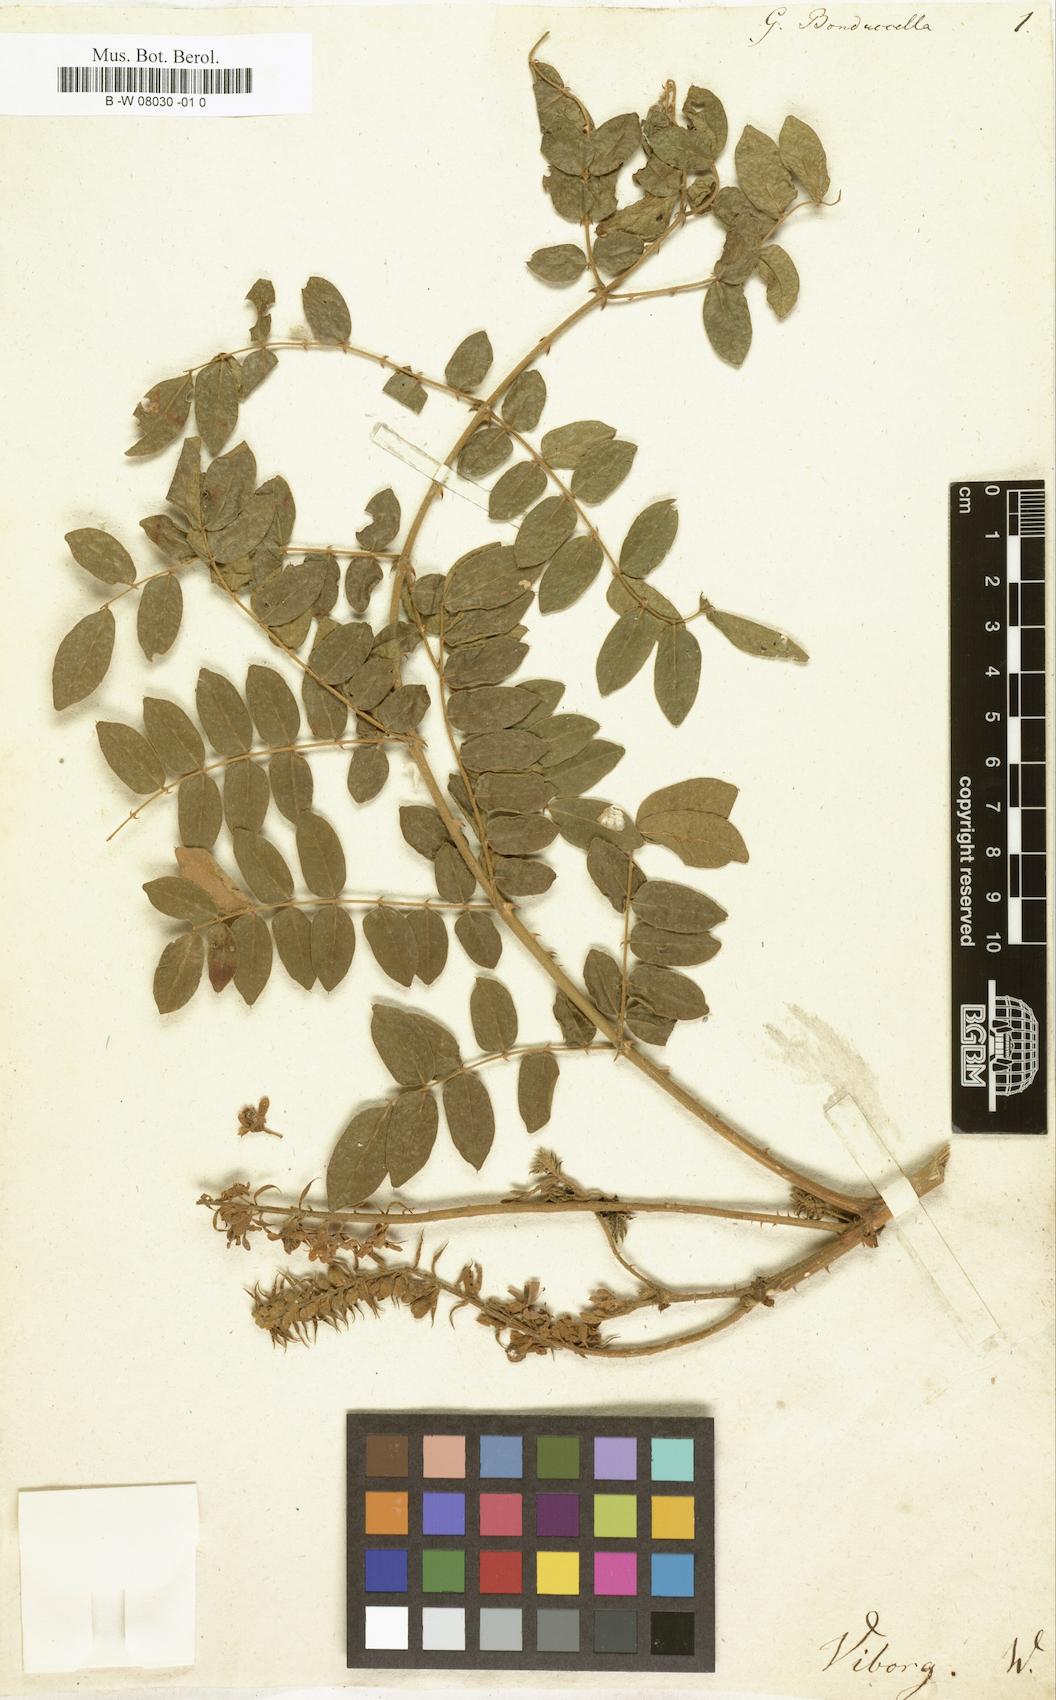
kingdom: Plantae
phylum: Tracheophyta
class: Magnoliopsida
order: Fabales
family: Fabaceae
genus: Guilandina
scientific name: Guilandina bonduc
